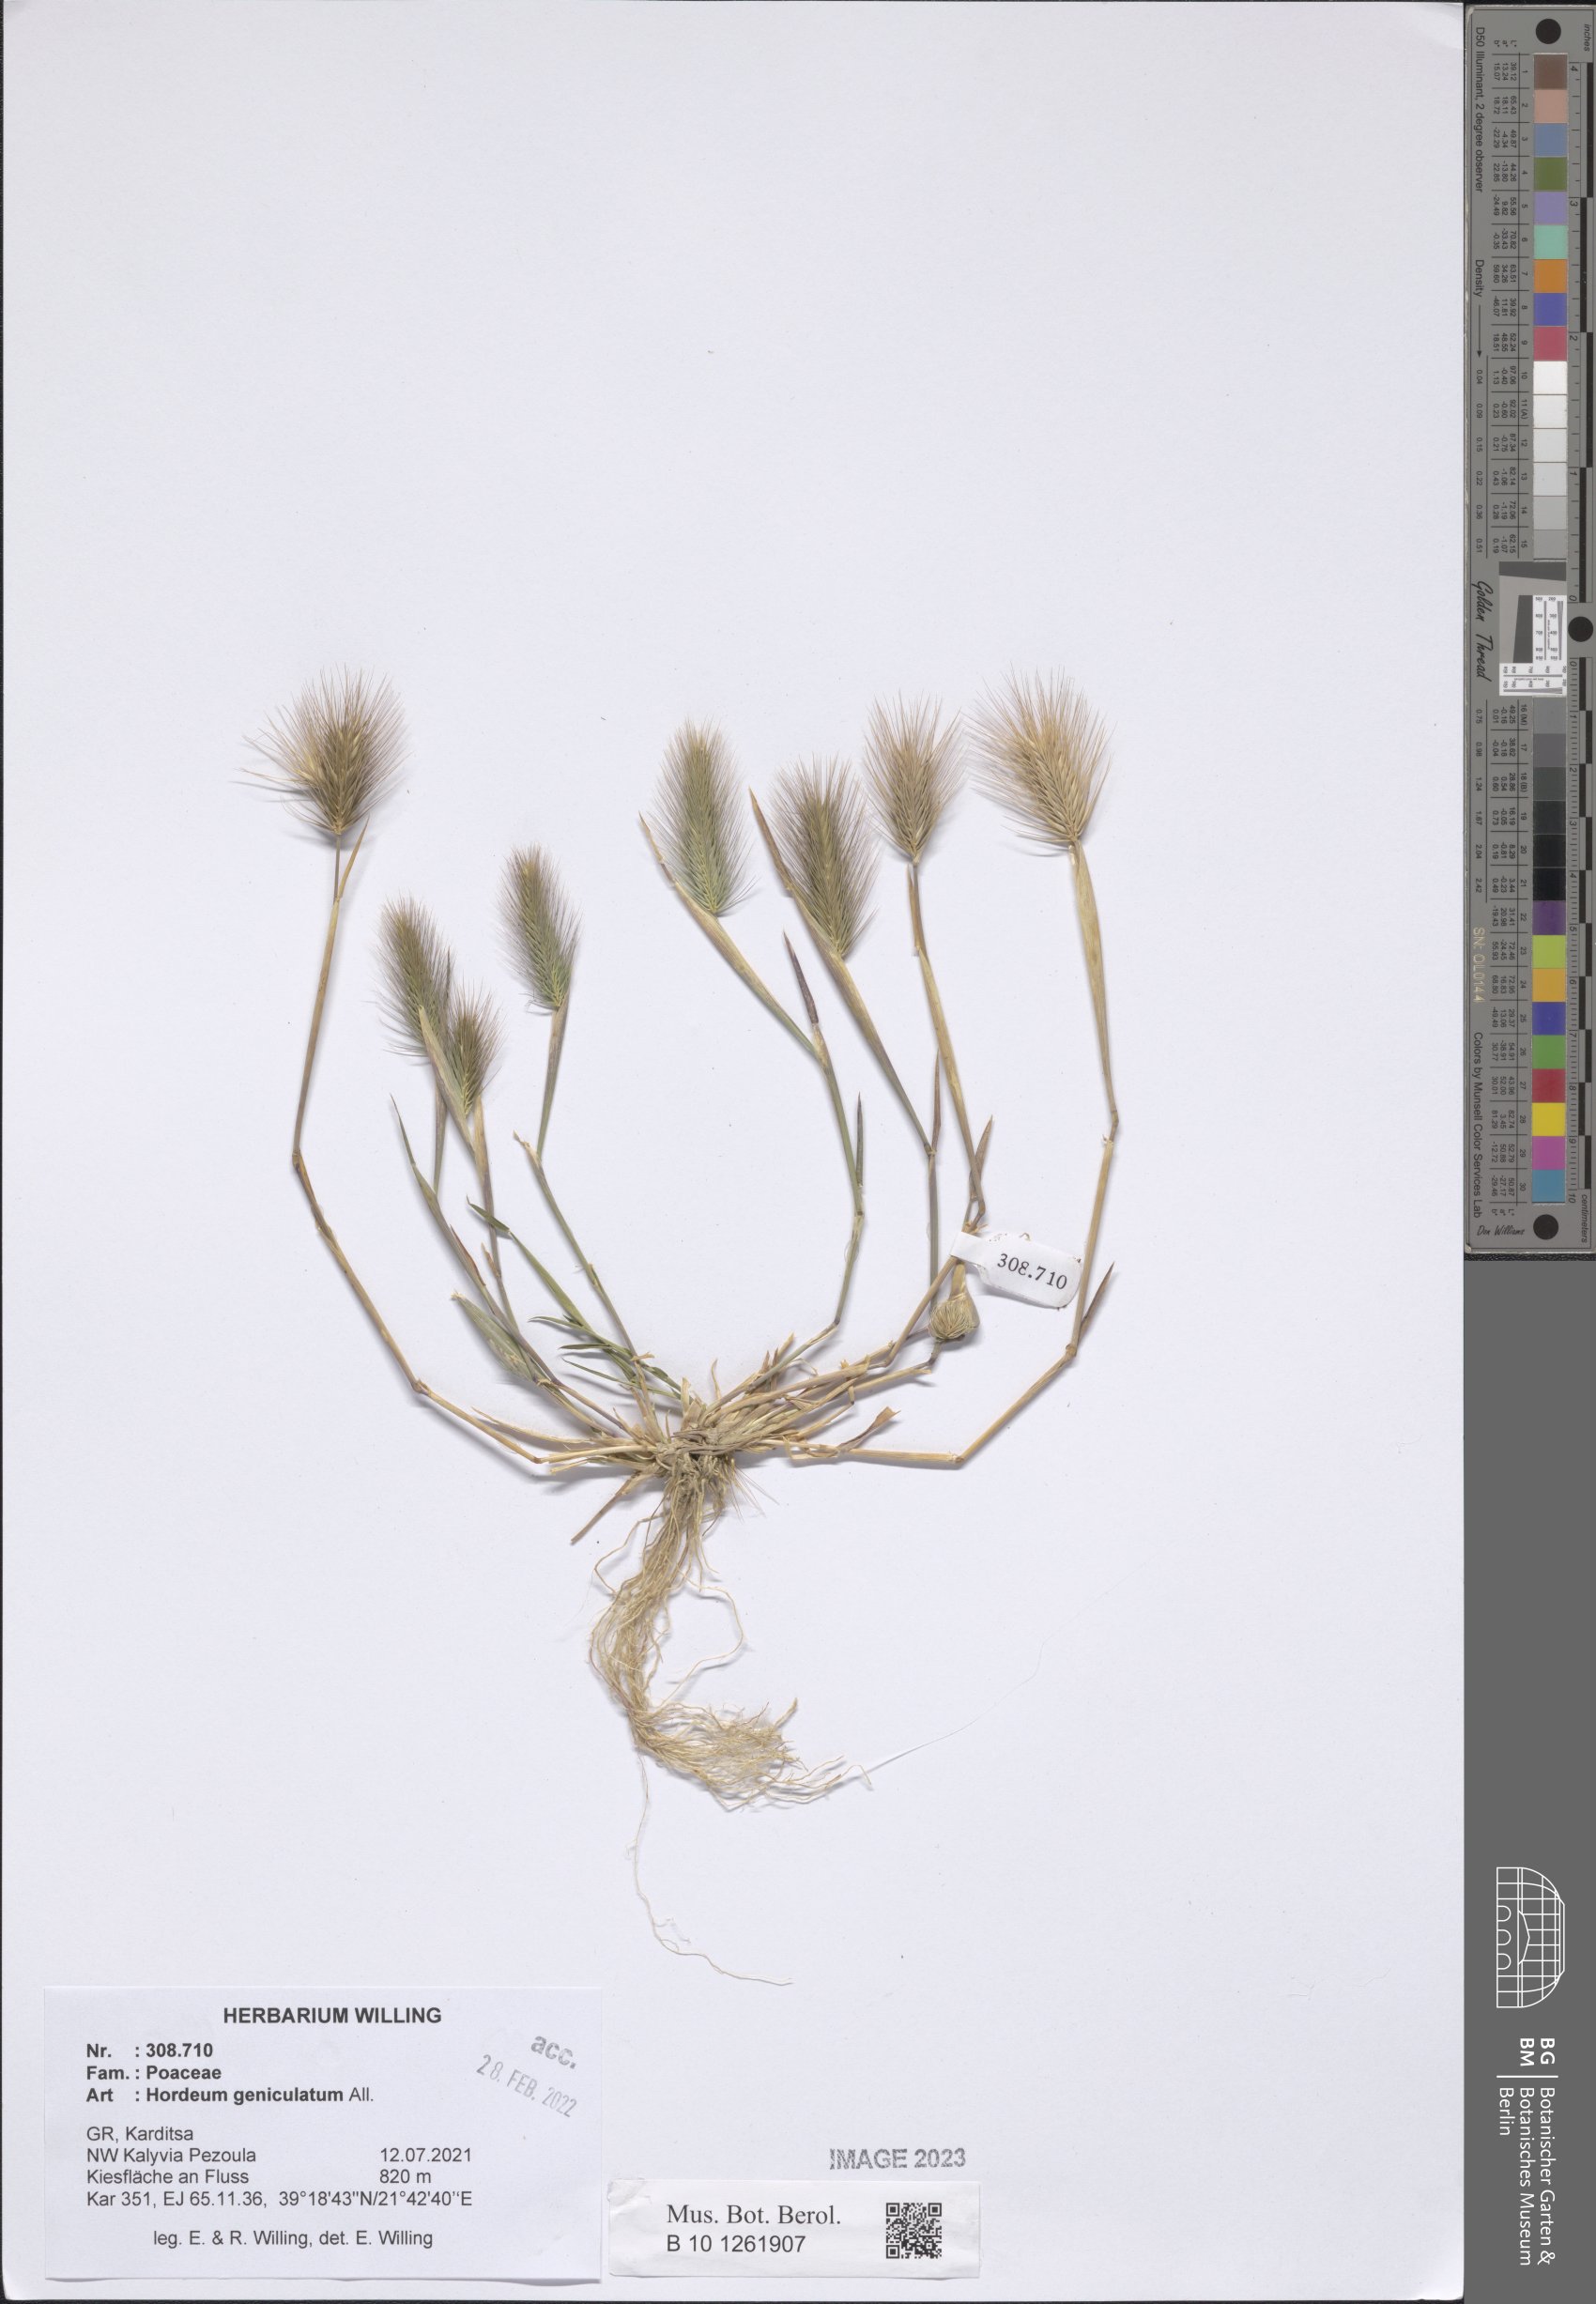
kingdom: Plantae
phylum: Tracheophyta
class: Liliopsida
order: Poales
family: Poaceae
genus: Hordeum
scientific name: Hordeum marinum
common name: Sea barley
